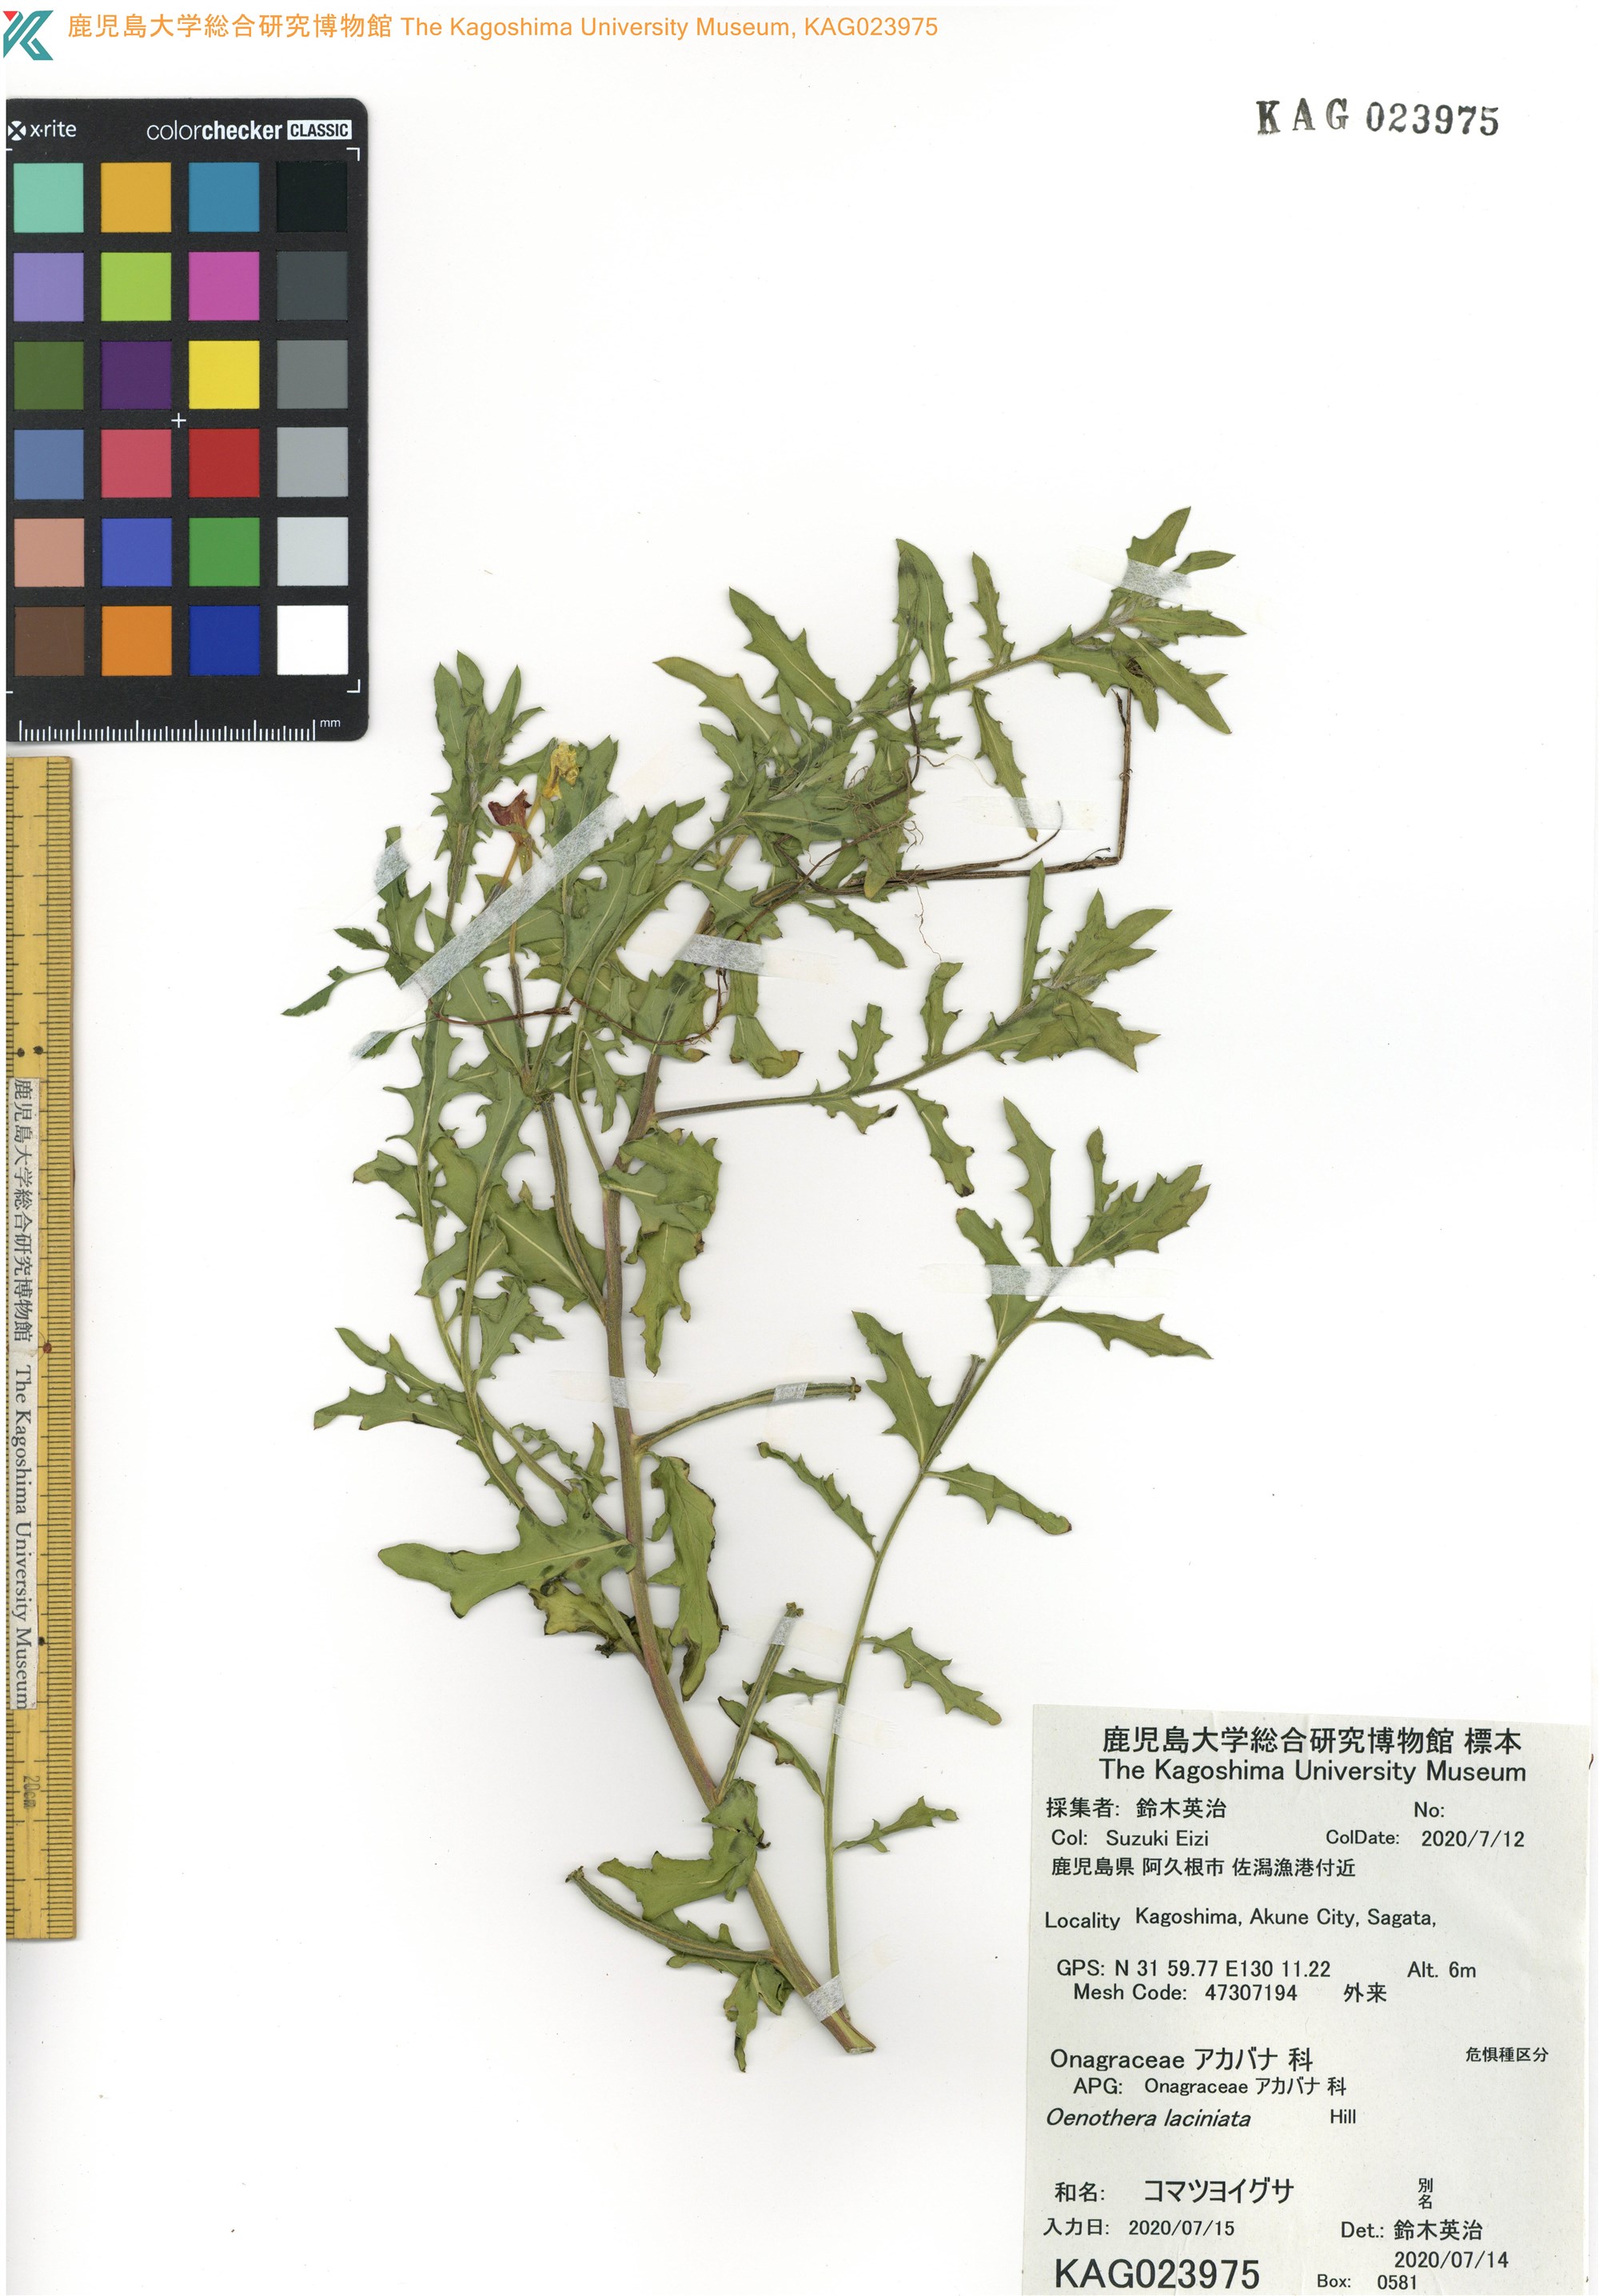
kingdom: Plantae
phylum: Tracheophyta
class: Magnoliopsida
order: Myrtales
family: Onagraceae
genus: Oenothera
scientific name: Oenothera laciniata
